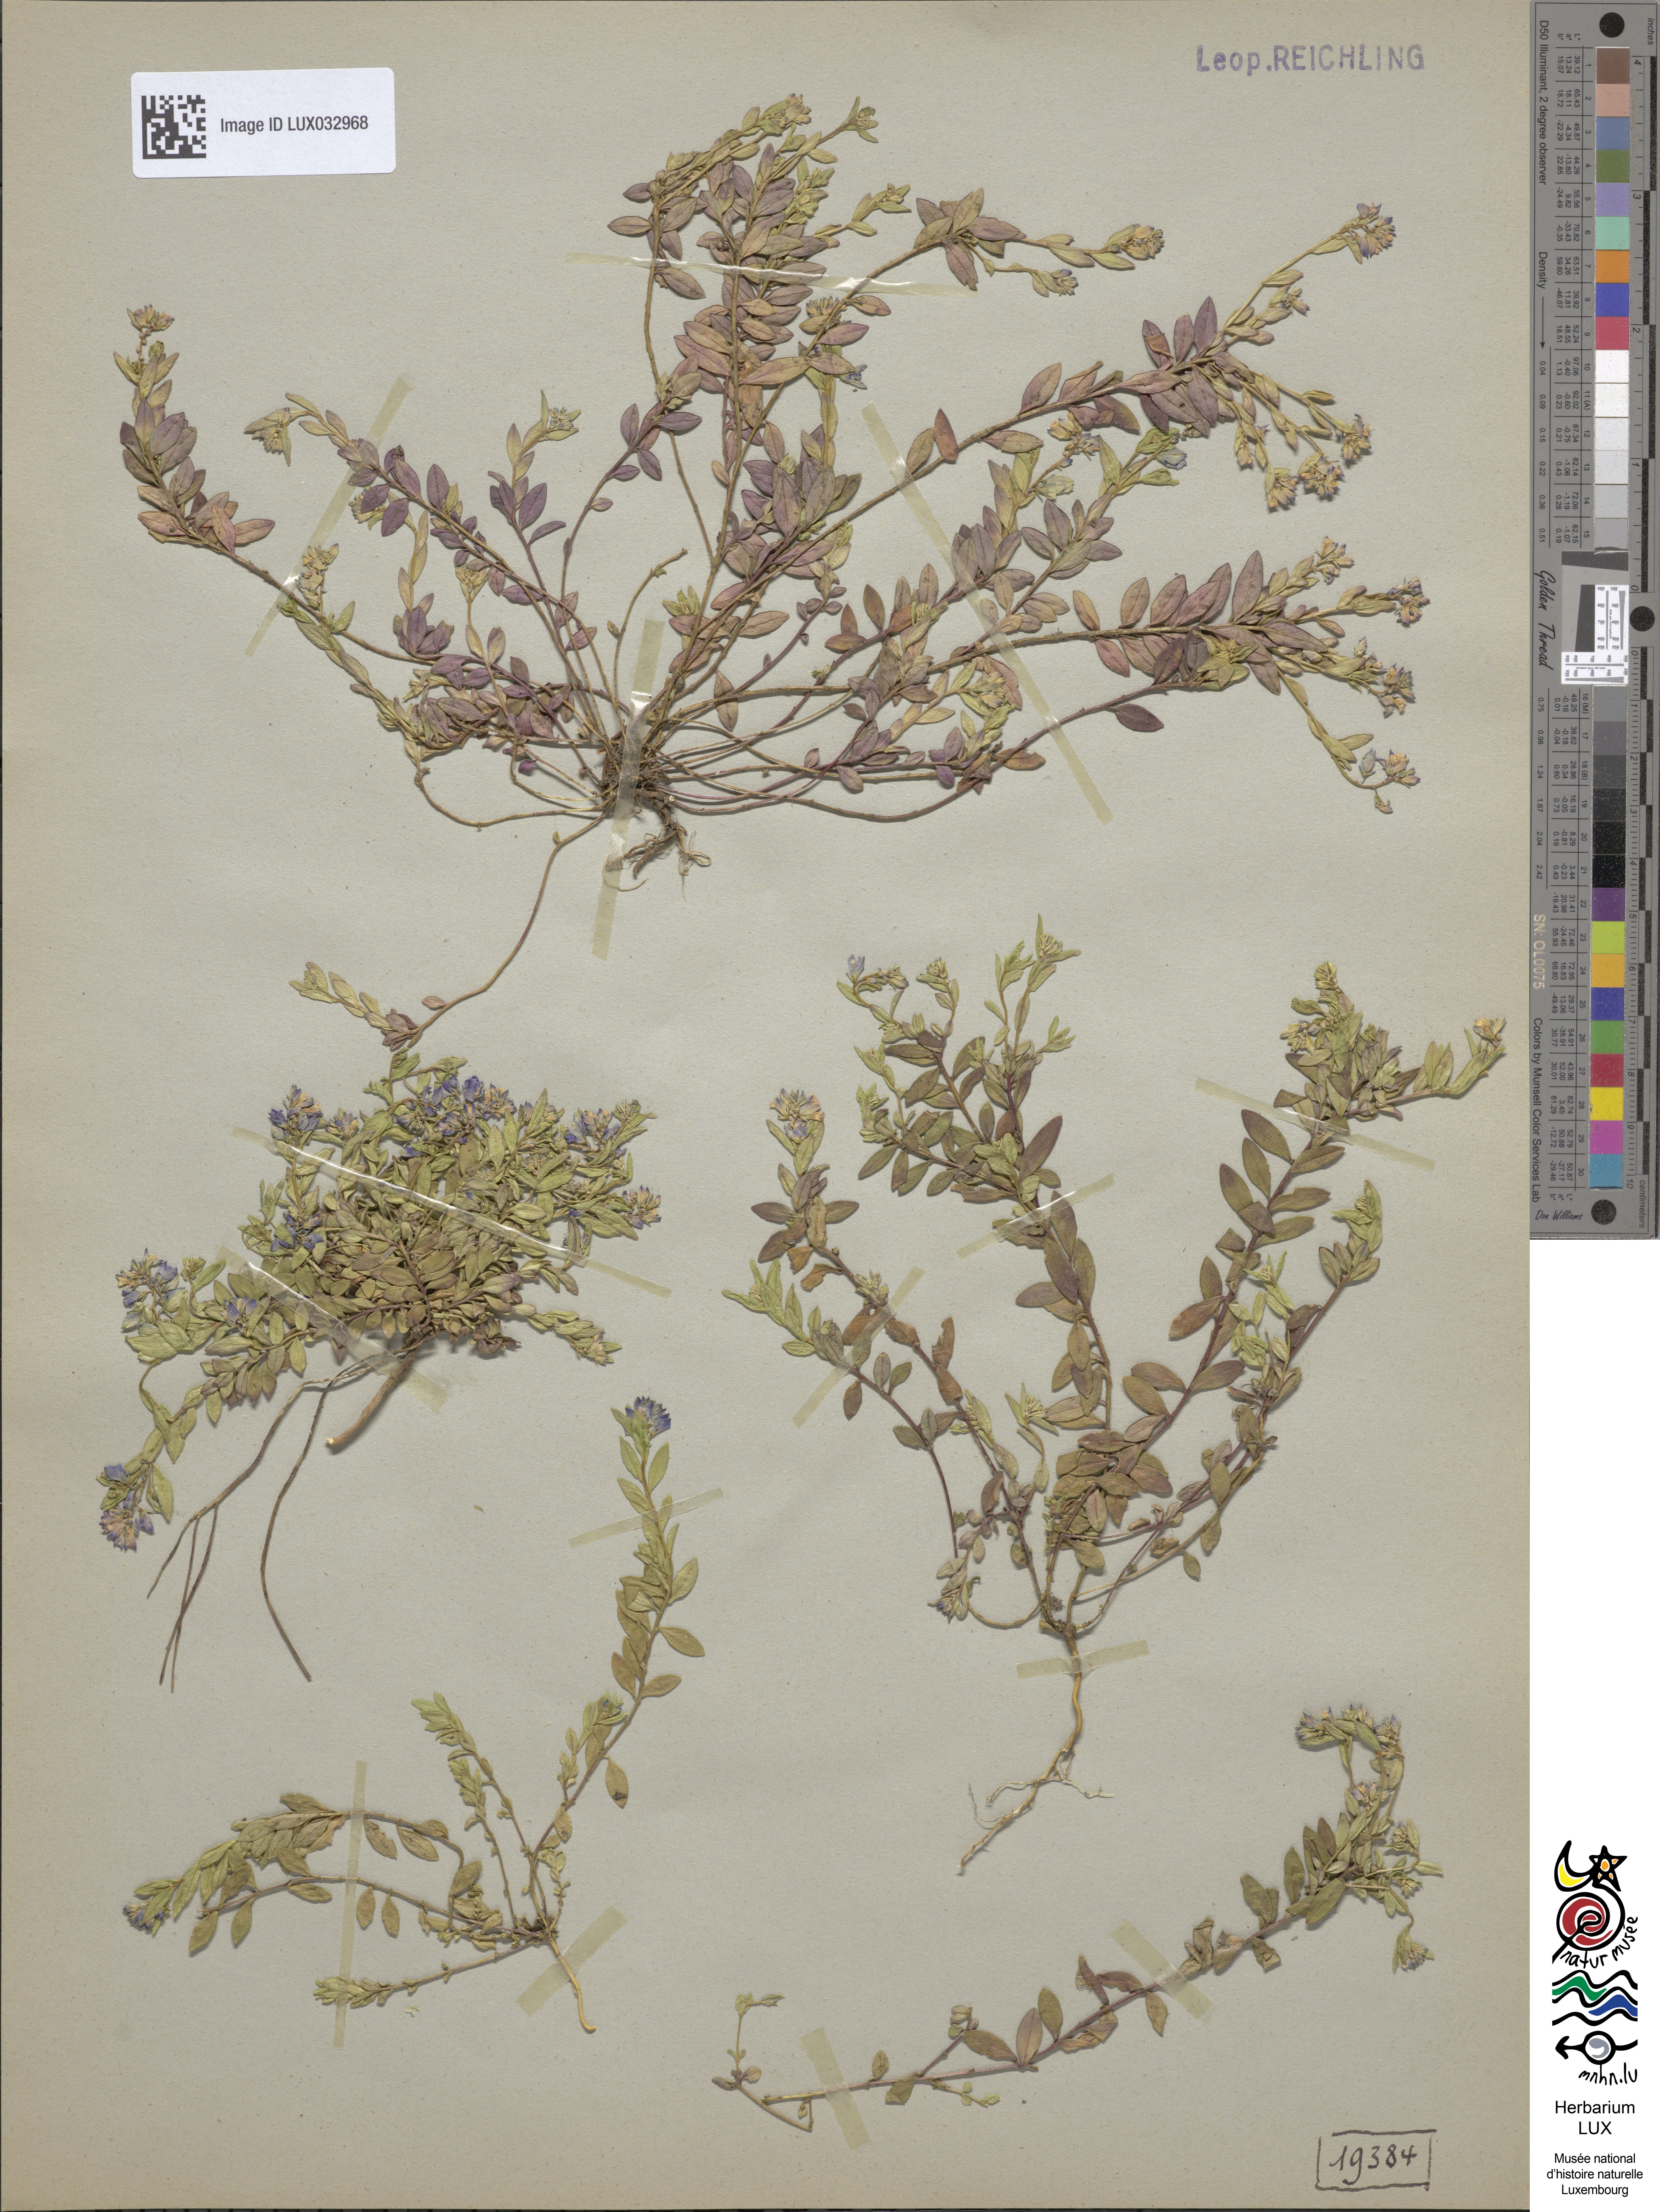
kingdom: Plantae
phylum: Tracheophyta
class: Magnoliopsida
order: Fabales
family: Polygalaceae
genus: Polygala
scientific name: Polygala serpyllifolia
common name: Heath milkwort
